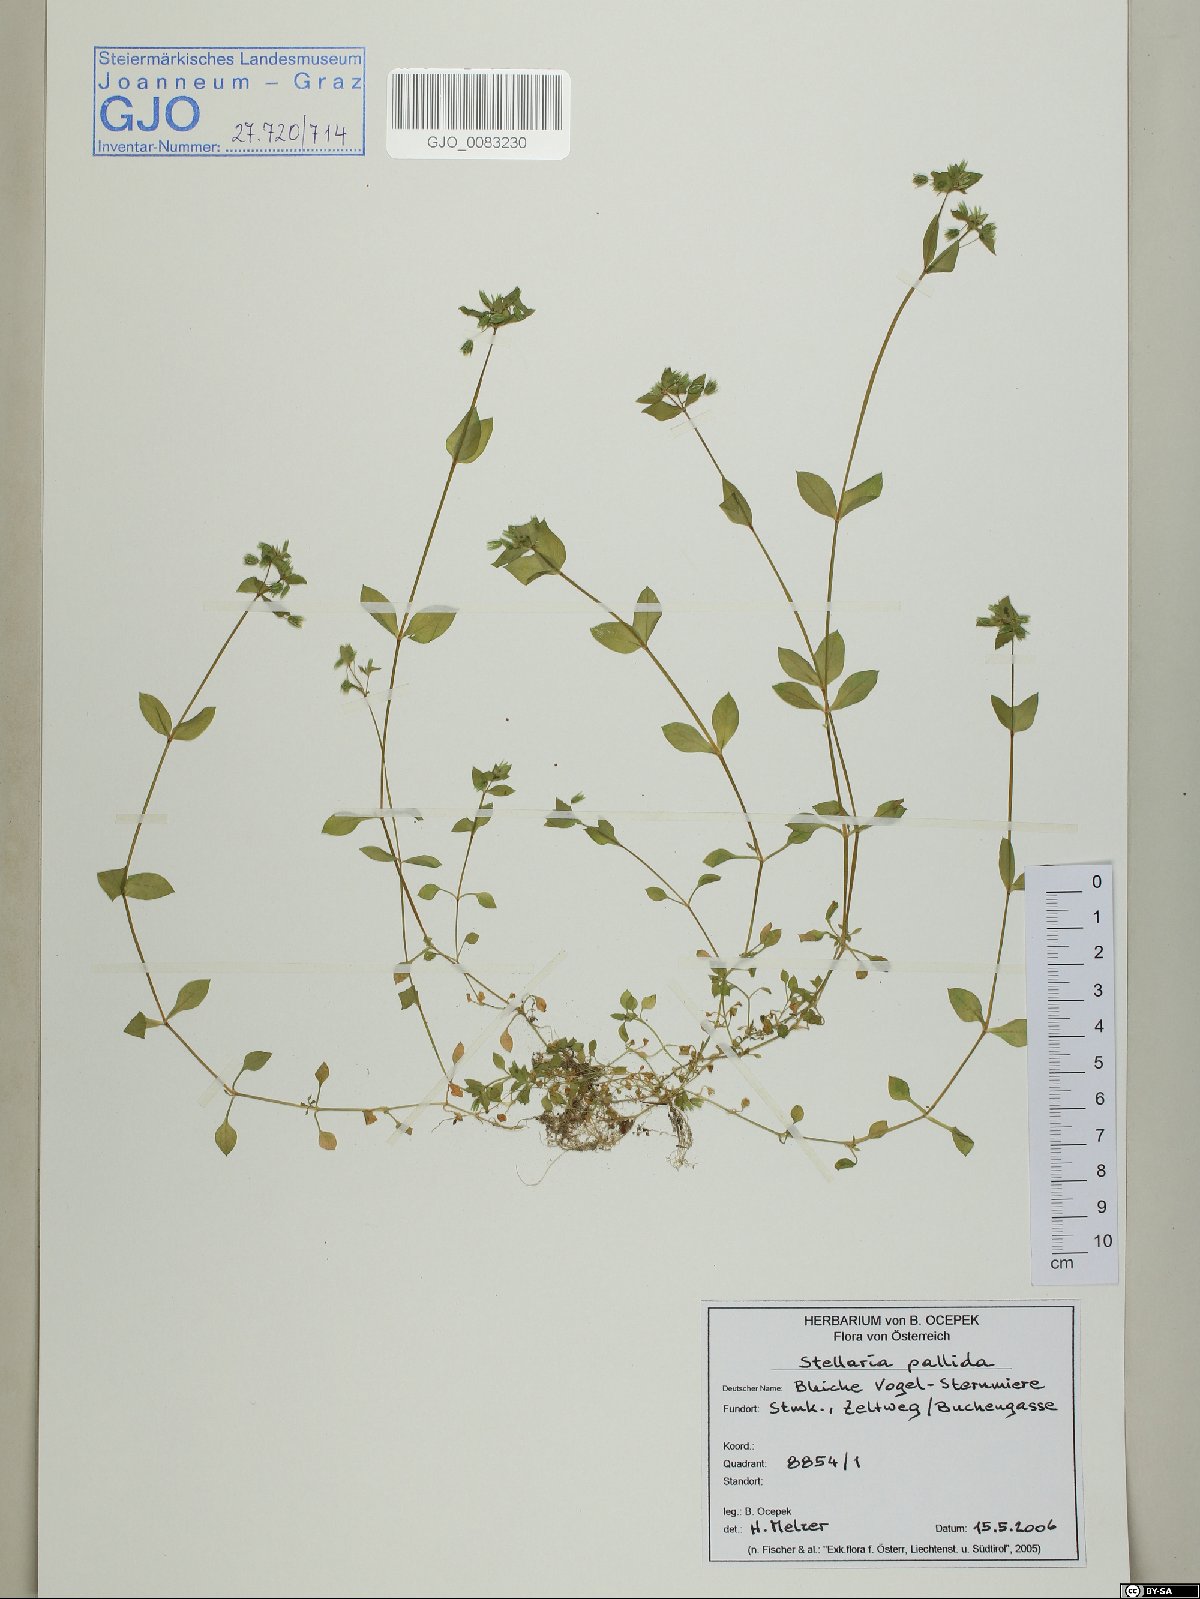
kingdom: Plantae
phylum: Tracheophyta
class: Magnoliopsida
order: Caryophyllales
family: Caryophyllaceae
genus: Stellaria
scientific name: Stellaria apetala
